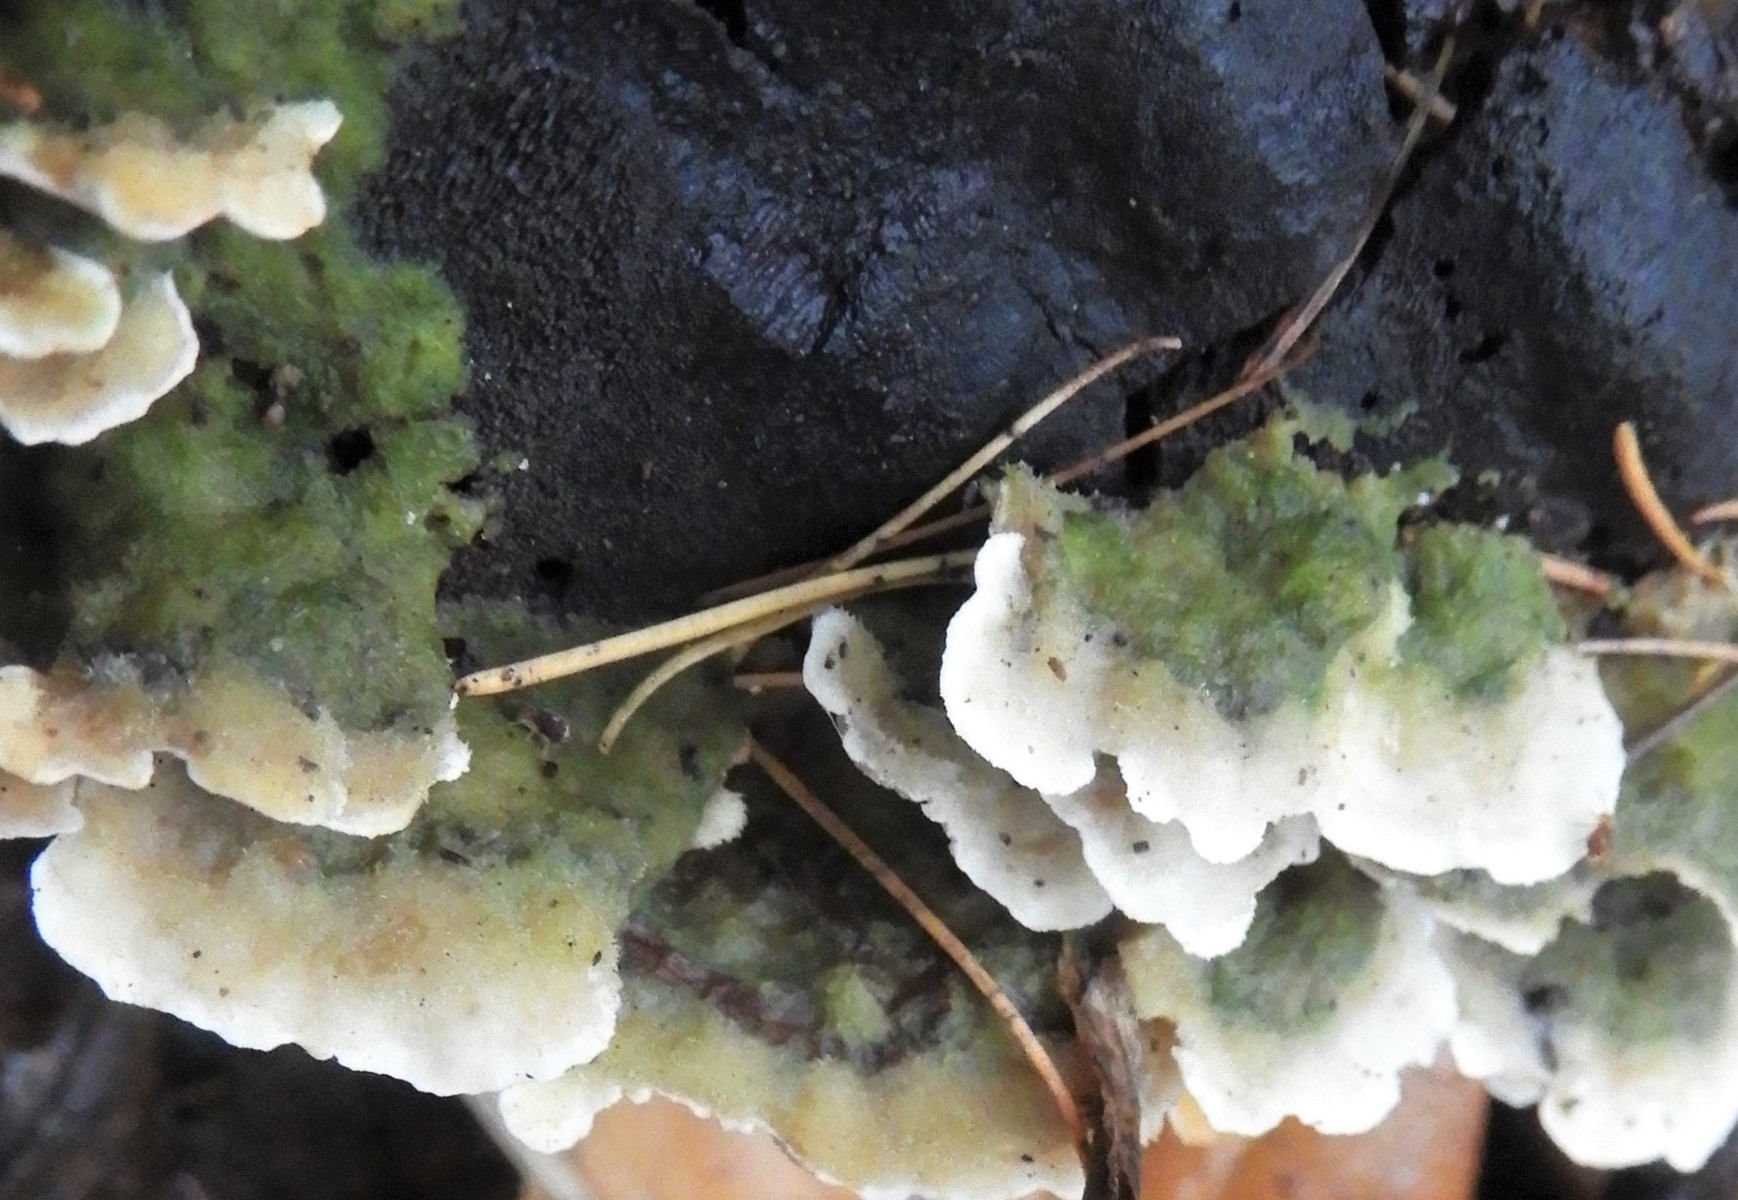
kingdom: Fungi
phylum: Basidiomycota
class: Agaricomycetes
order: Polyporales
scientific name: Polyporales
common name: poresvampordenen
